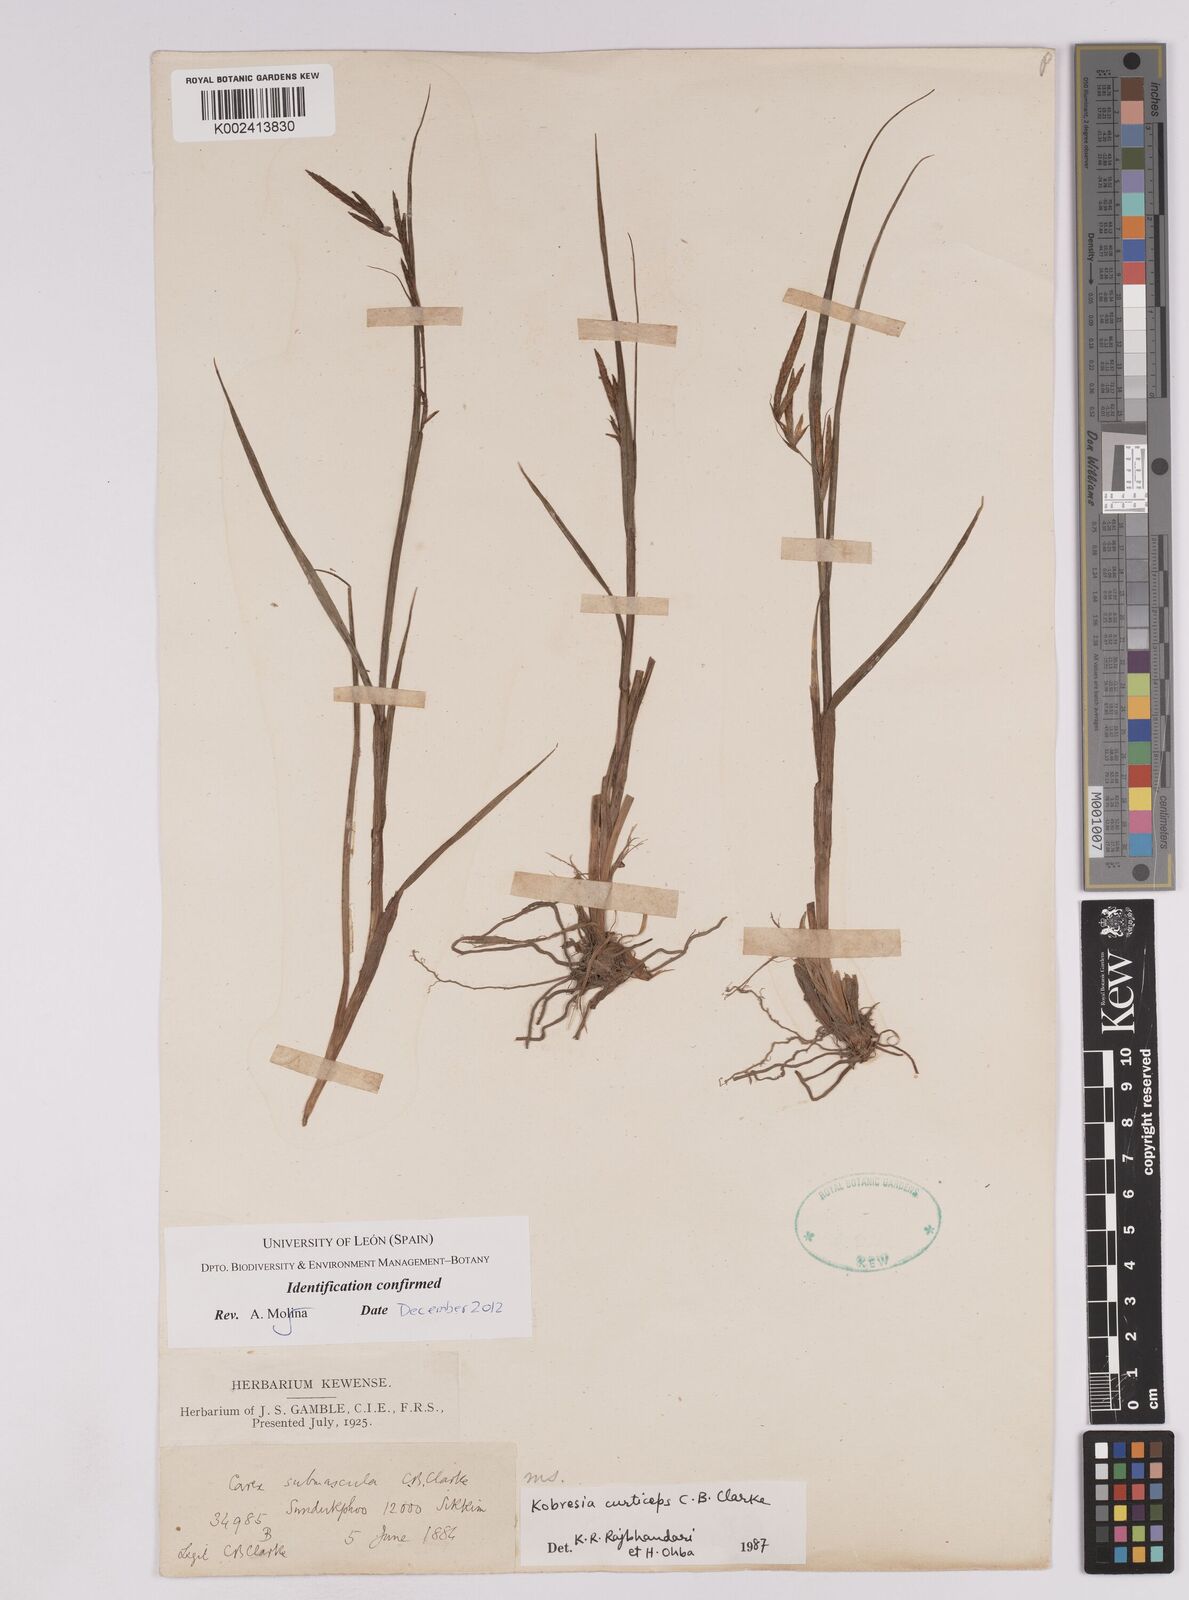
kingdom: Plantae
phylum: Tracheophyta
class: Liliopsida
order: Poales
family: Cyperaceae
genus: Carex
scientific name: Carex curticeps
